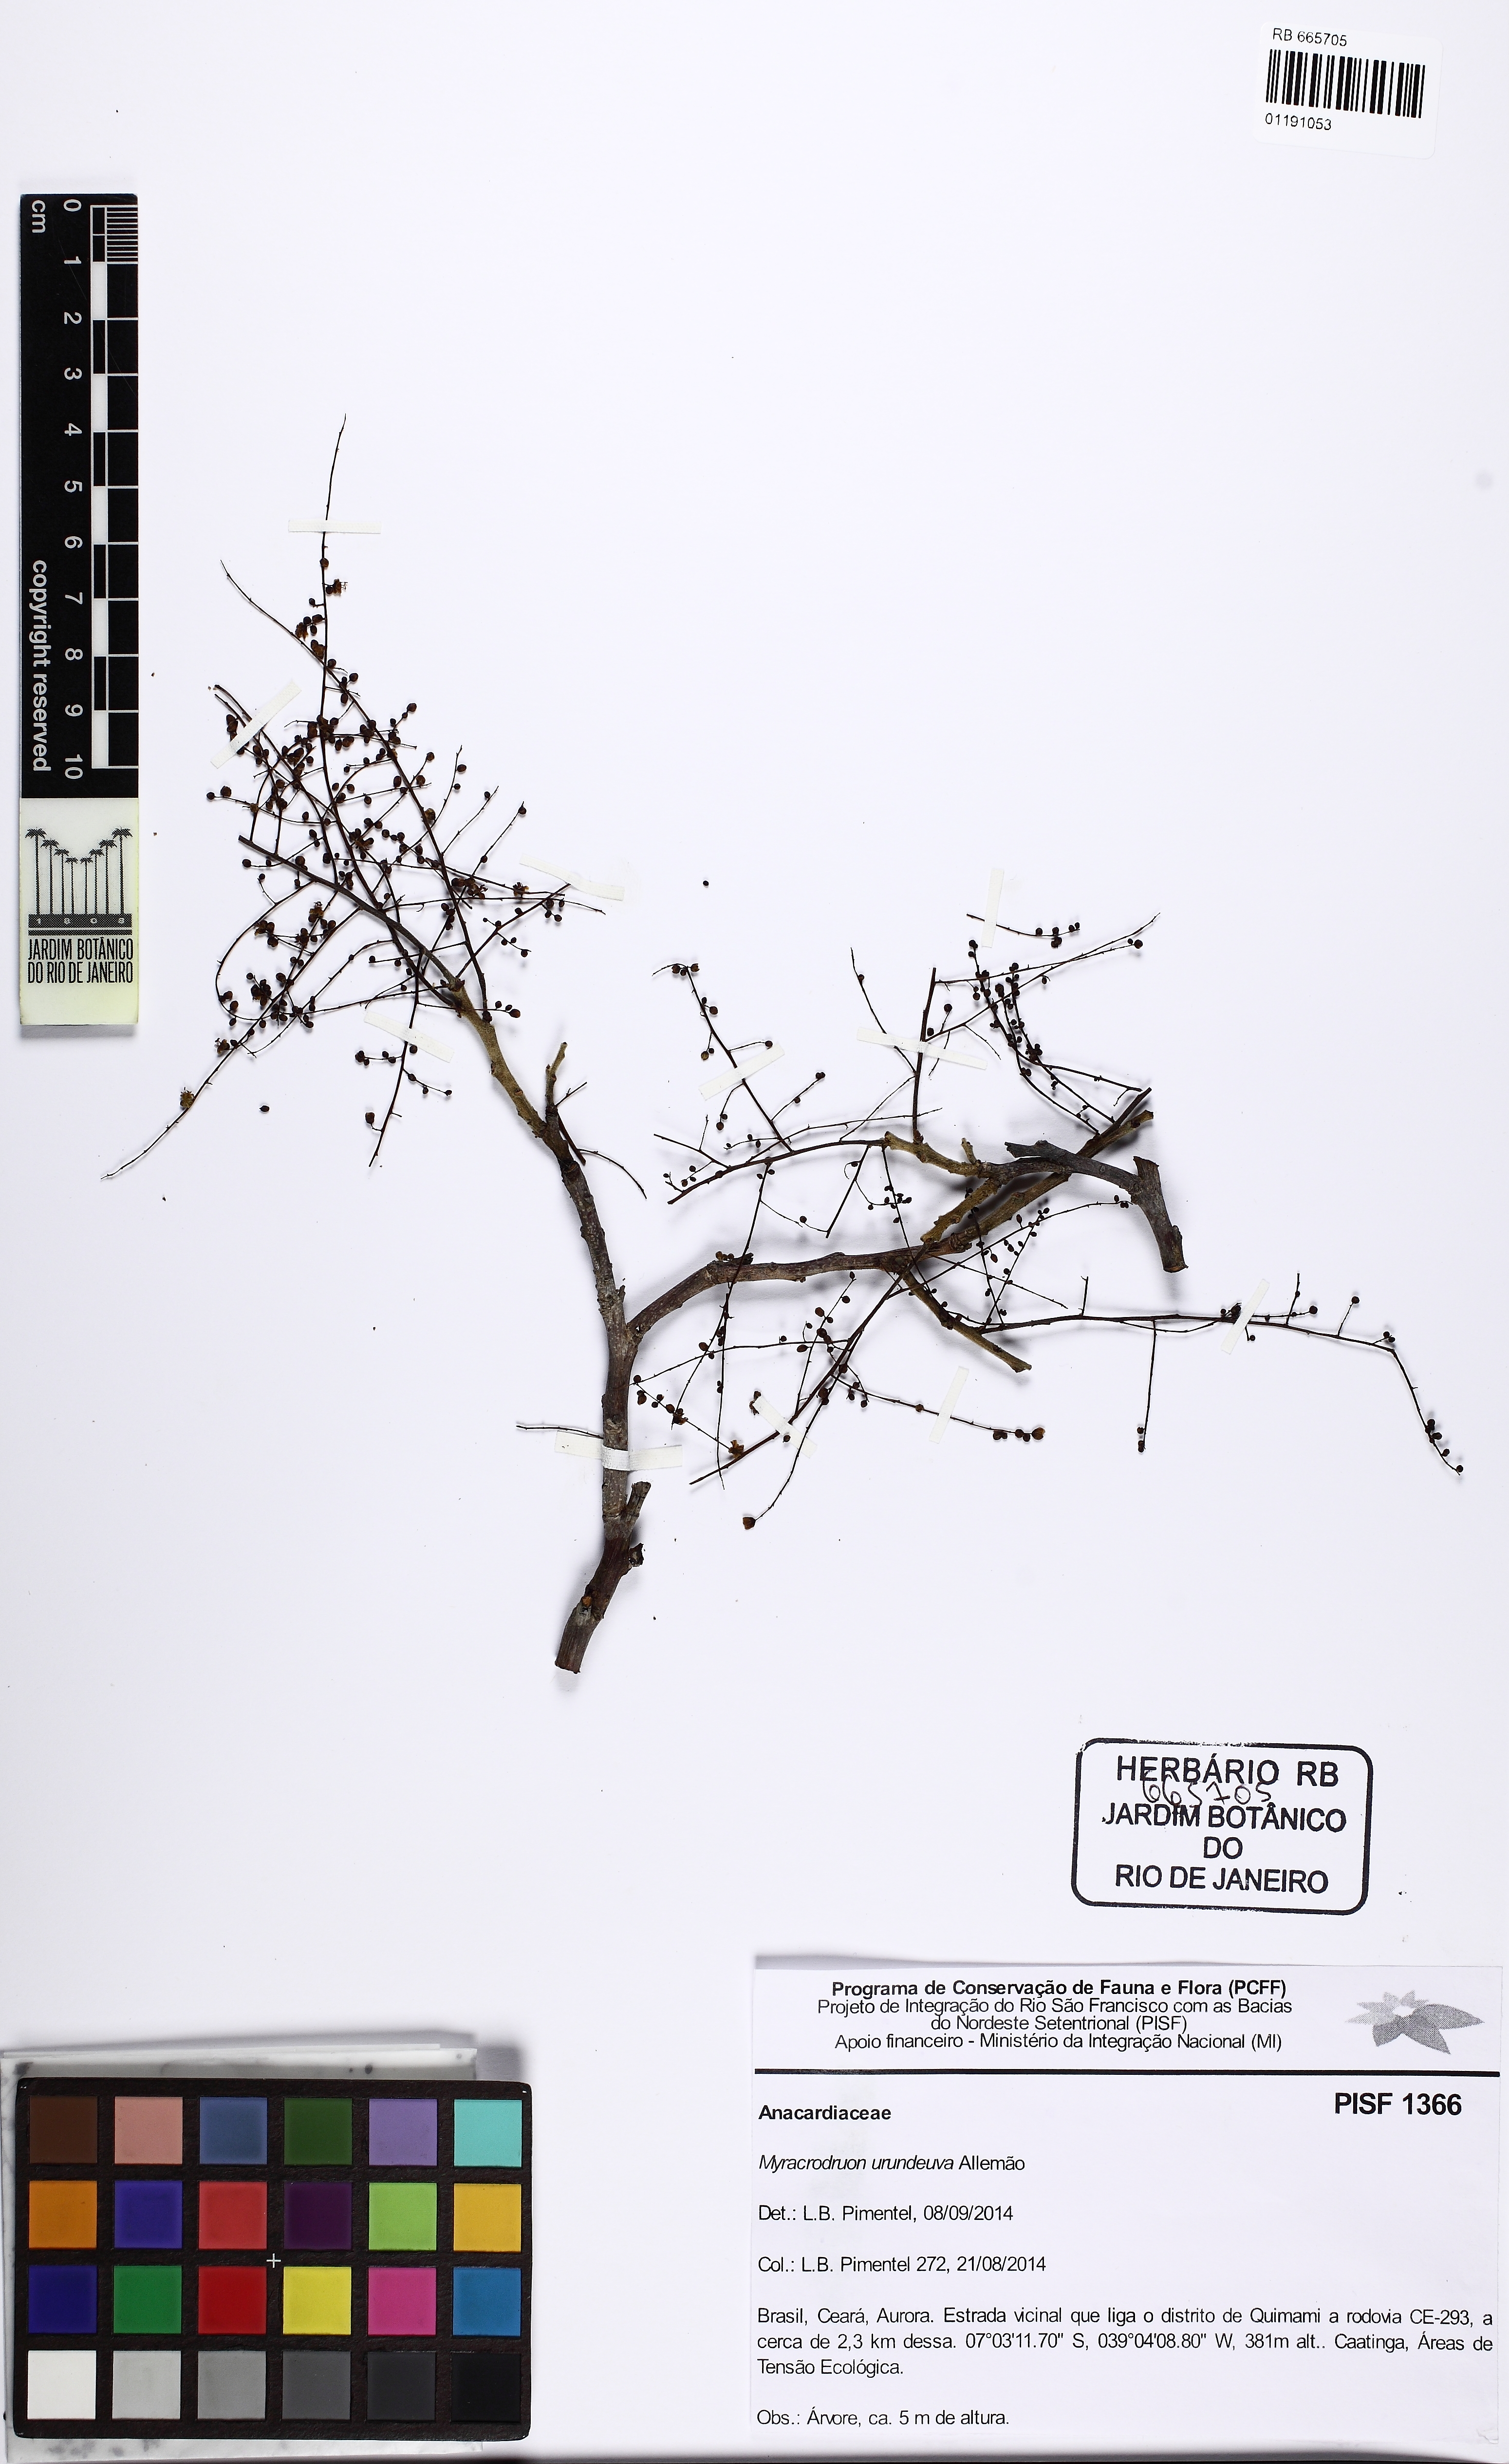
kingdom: Plantae
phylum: Tracheophyta
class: Magnoliopsida
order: Sapindales
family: Anacardiaceae
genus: Myracrodruon
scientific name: Myracrodruon urundeuva
